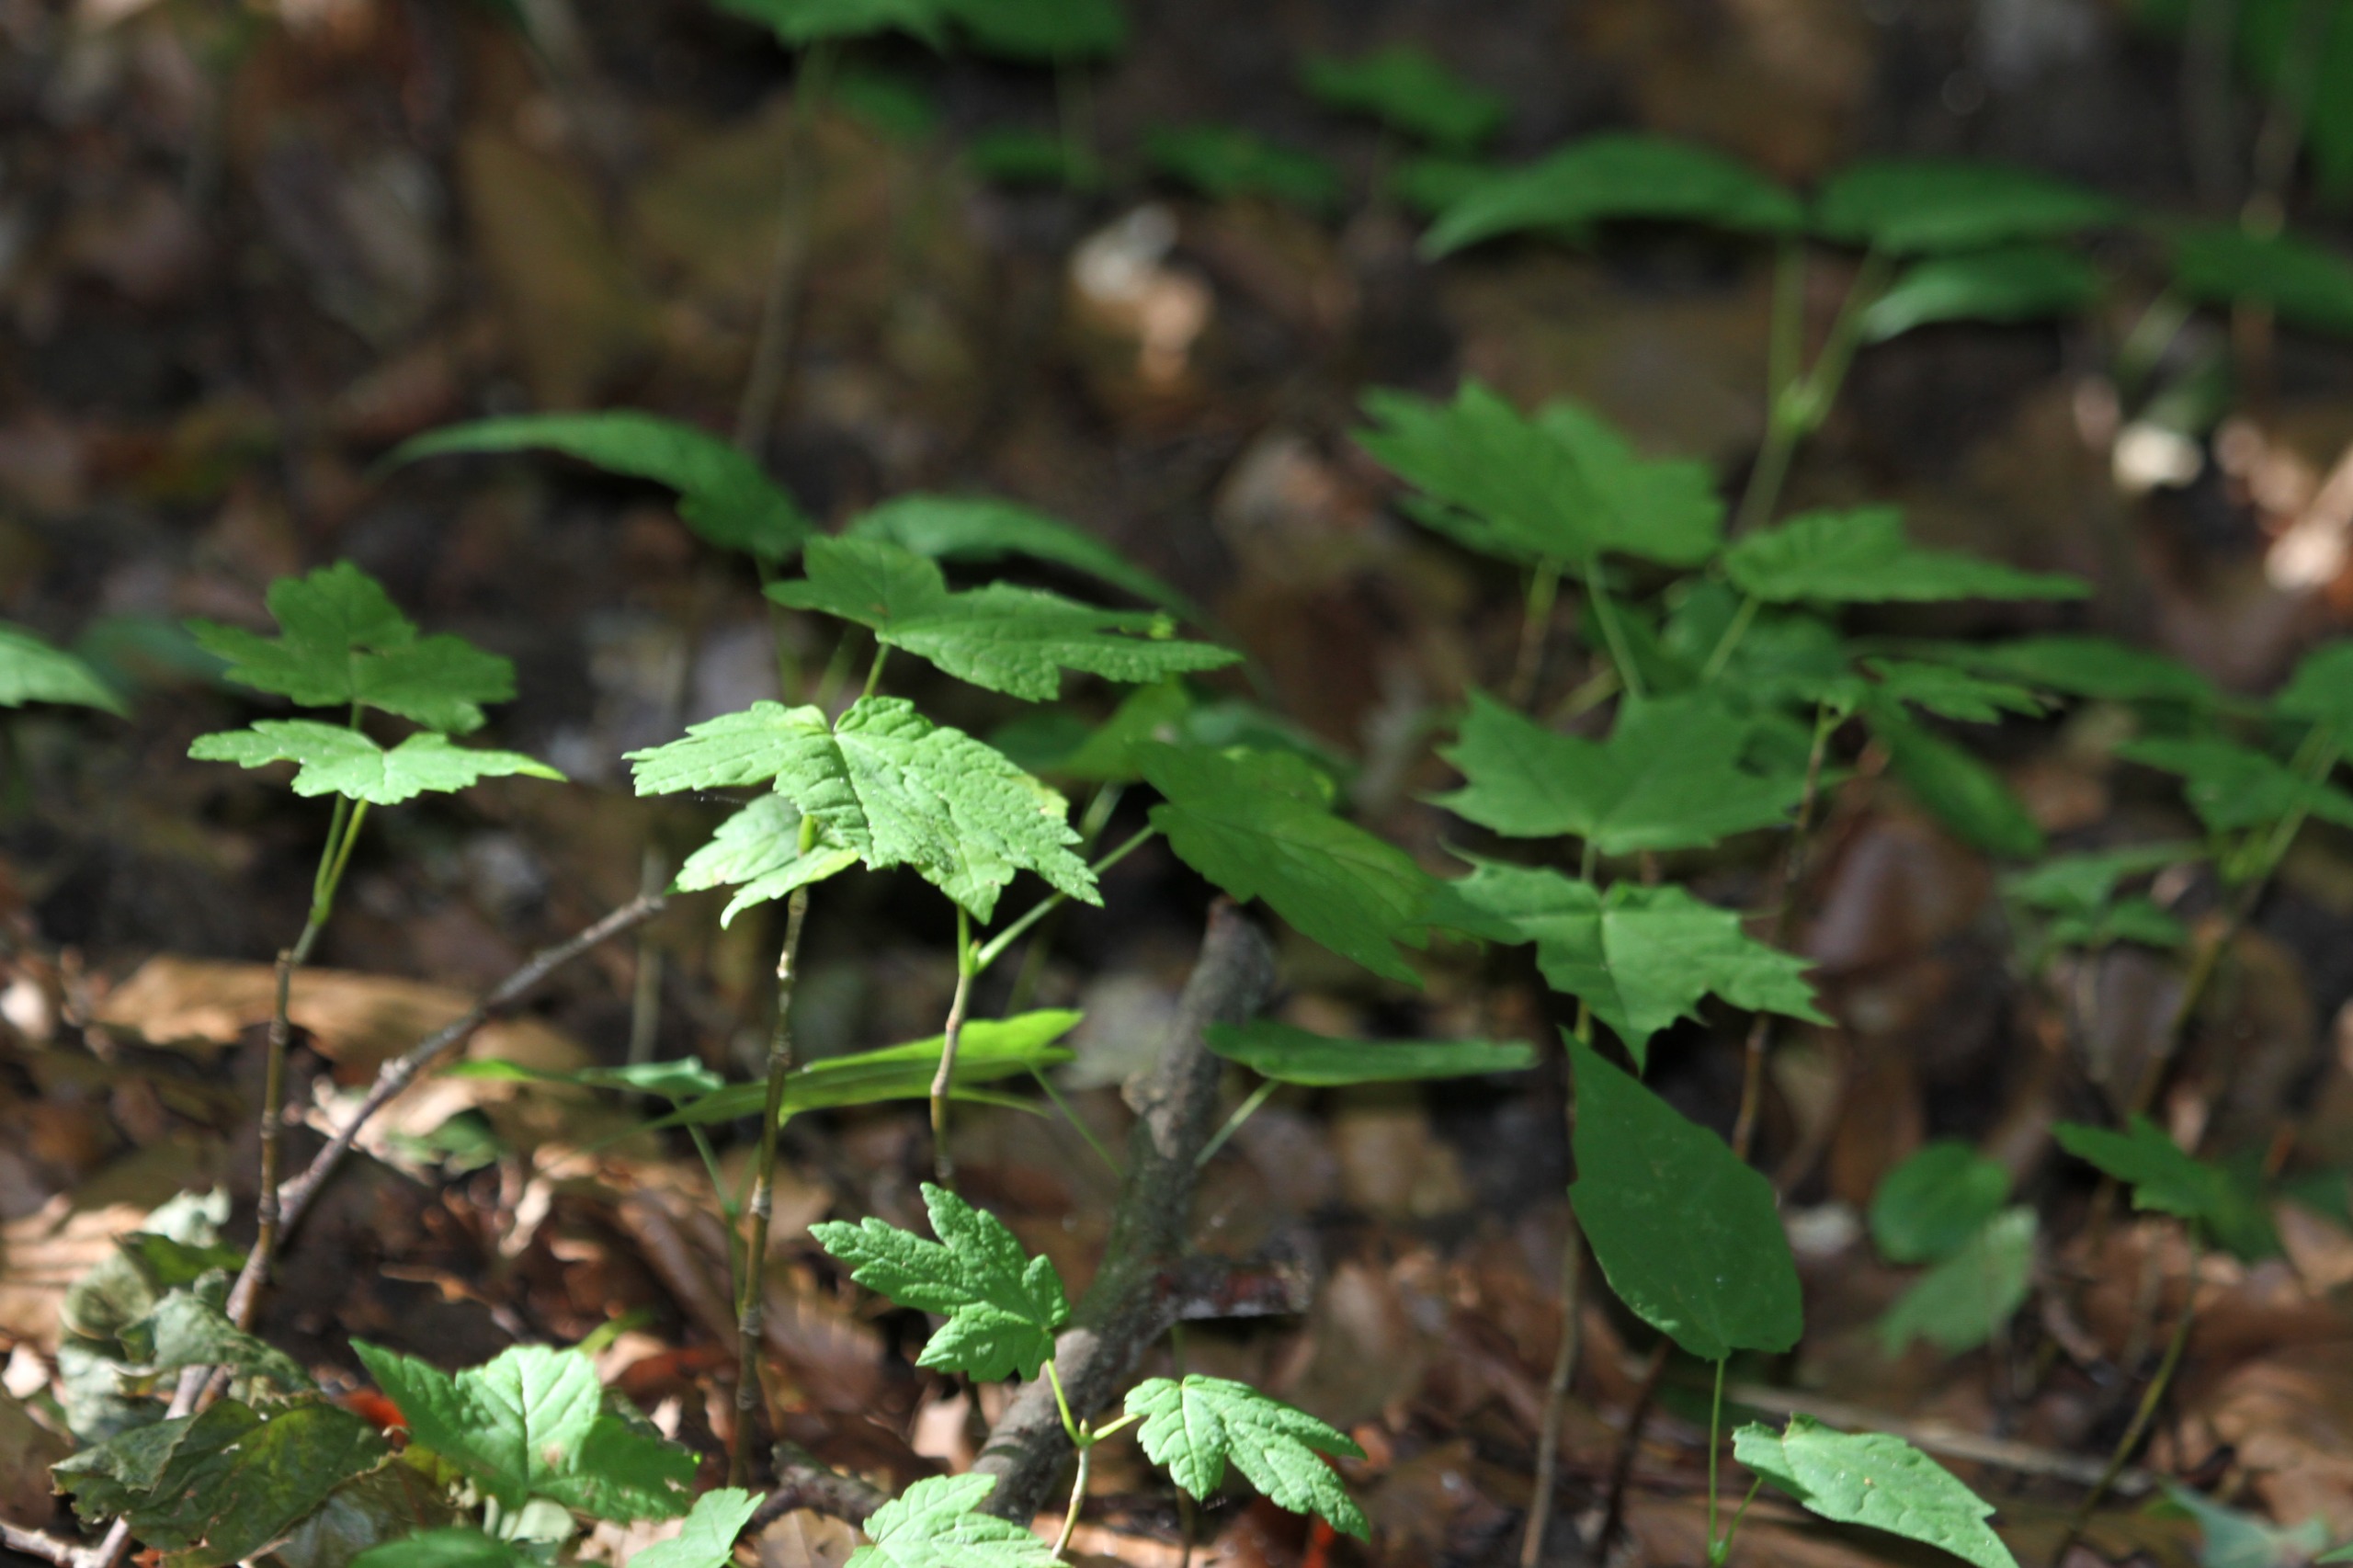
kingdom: Plantae
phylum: Tracheophyta
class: Magnoliopsida
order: Sapindales
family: Sapindaceae
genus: Acer
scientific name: Acer pseudoplatanus
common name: Ahorn
